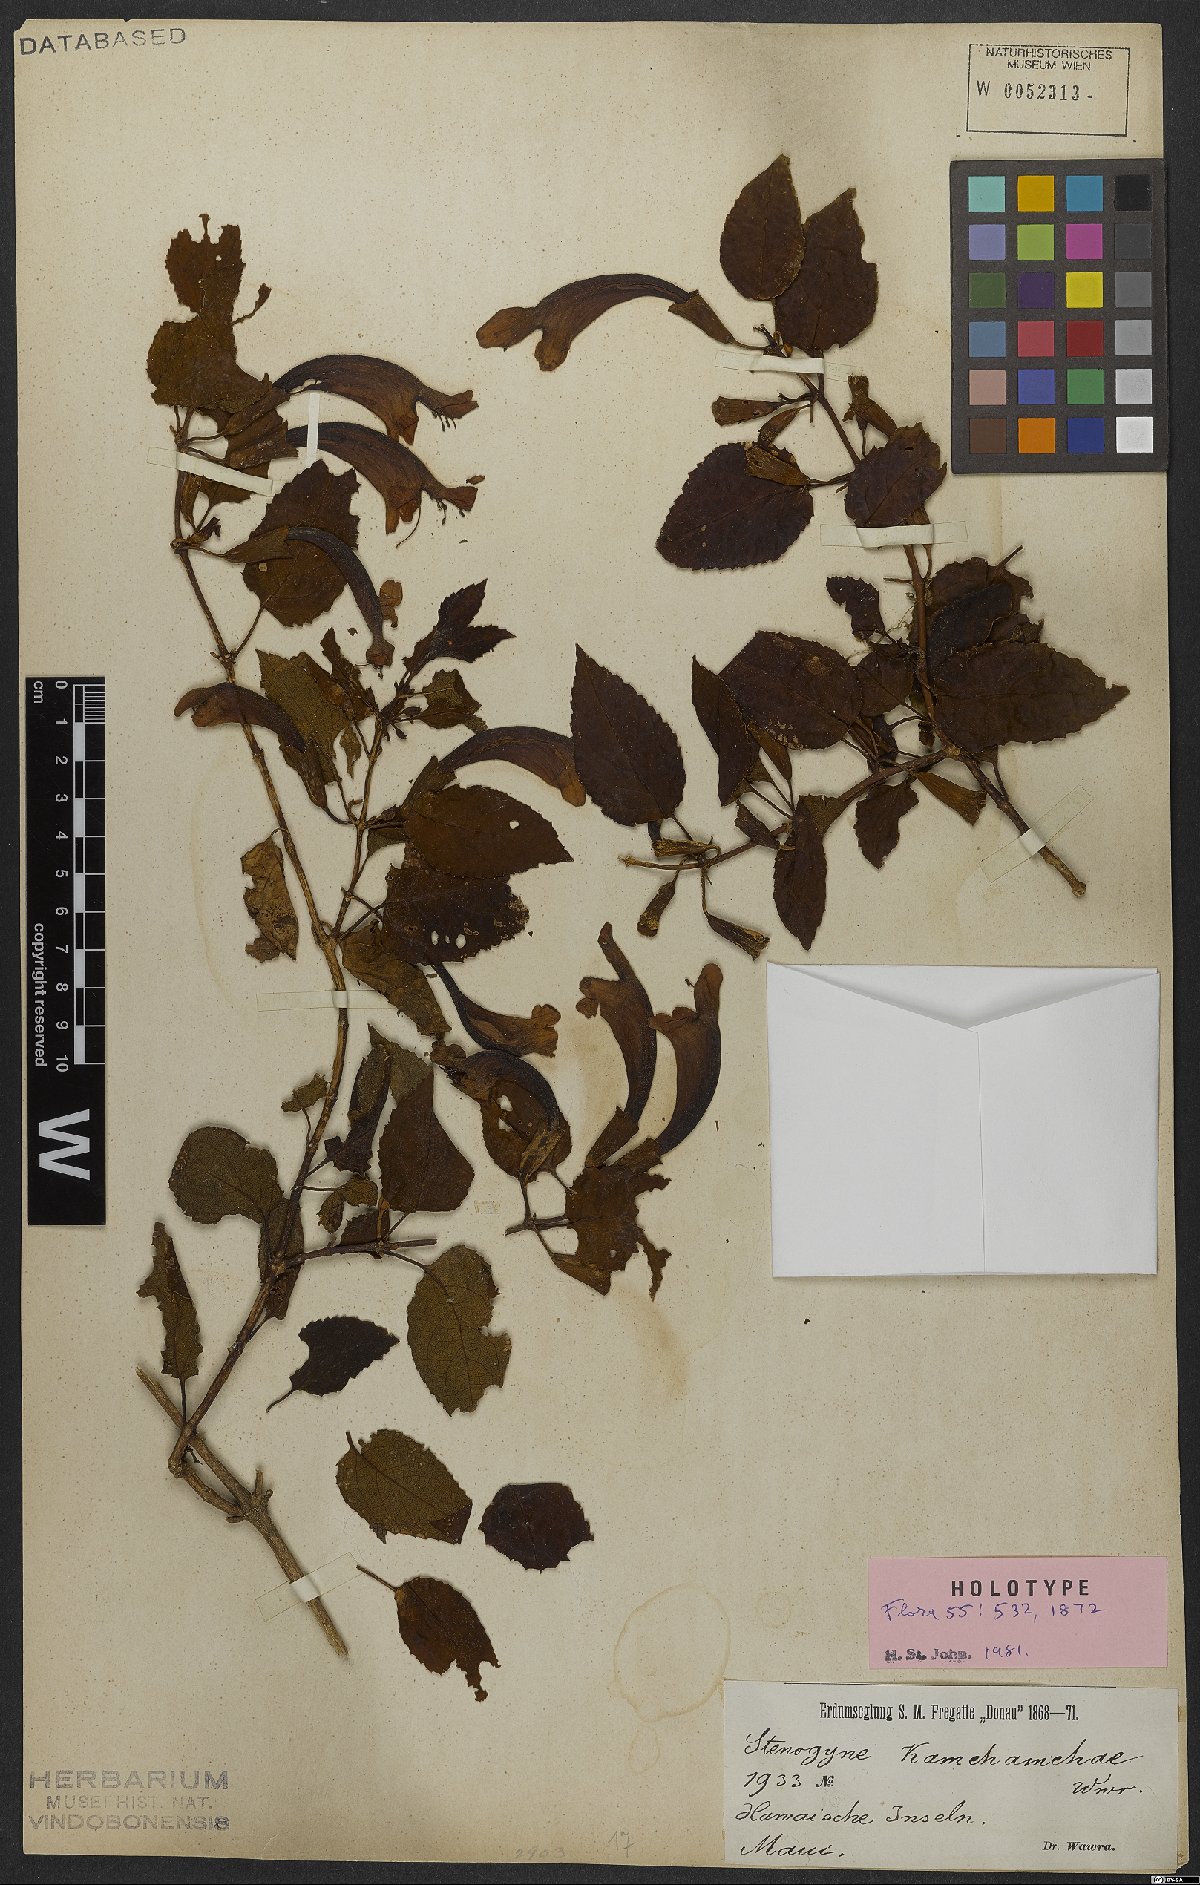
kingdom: Plantae
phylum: Tracheophyta
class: Magnoliopsida
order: Lamiales
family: Lamiaceae
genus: Stenogyne
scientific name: Stenogyne kamehamehae
